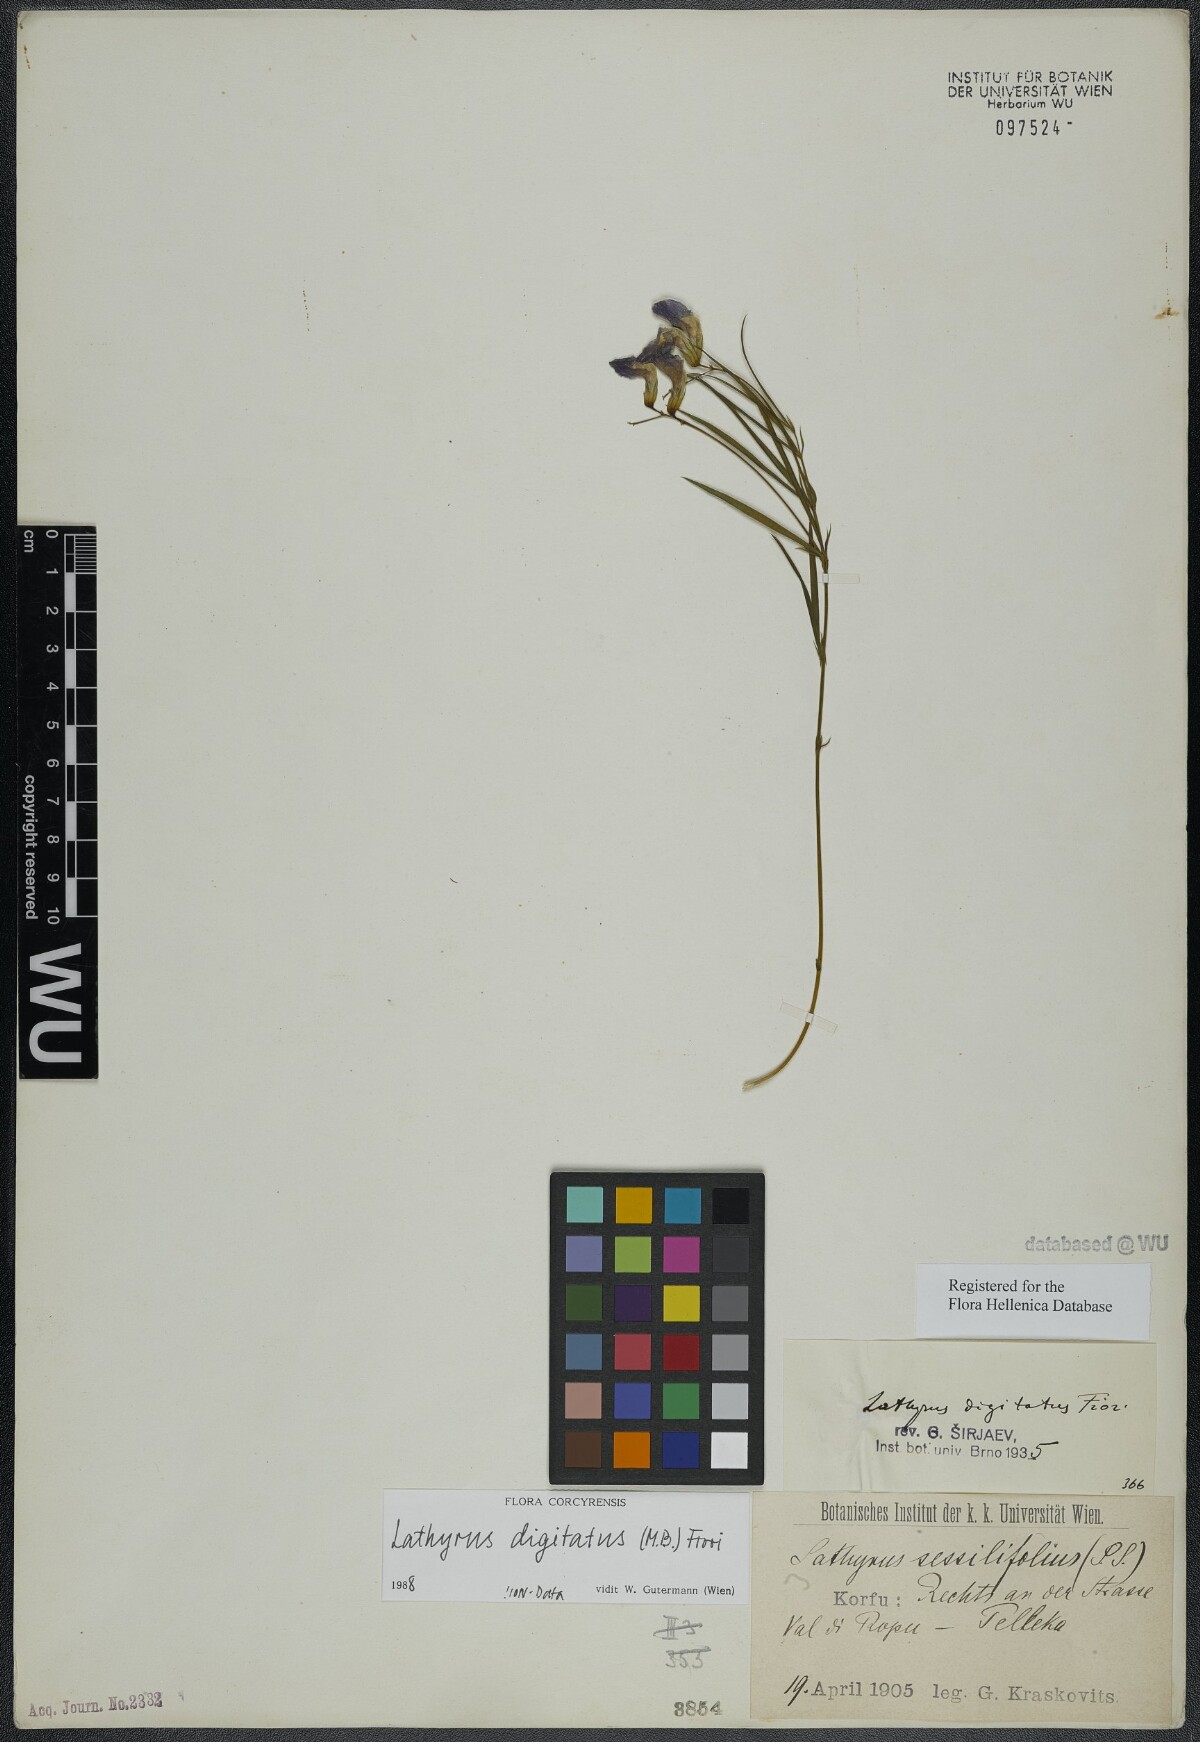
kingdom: Plantae
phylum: Tracheophyta
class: Magnoliopsida
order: Fabales
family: Fabaceae
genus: Lathyrus
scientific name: Lathyrus digitatus
